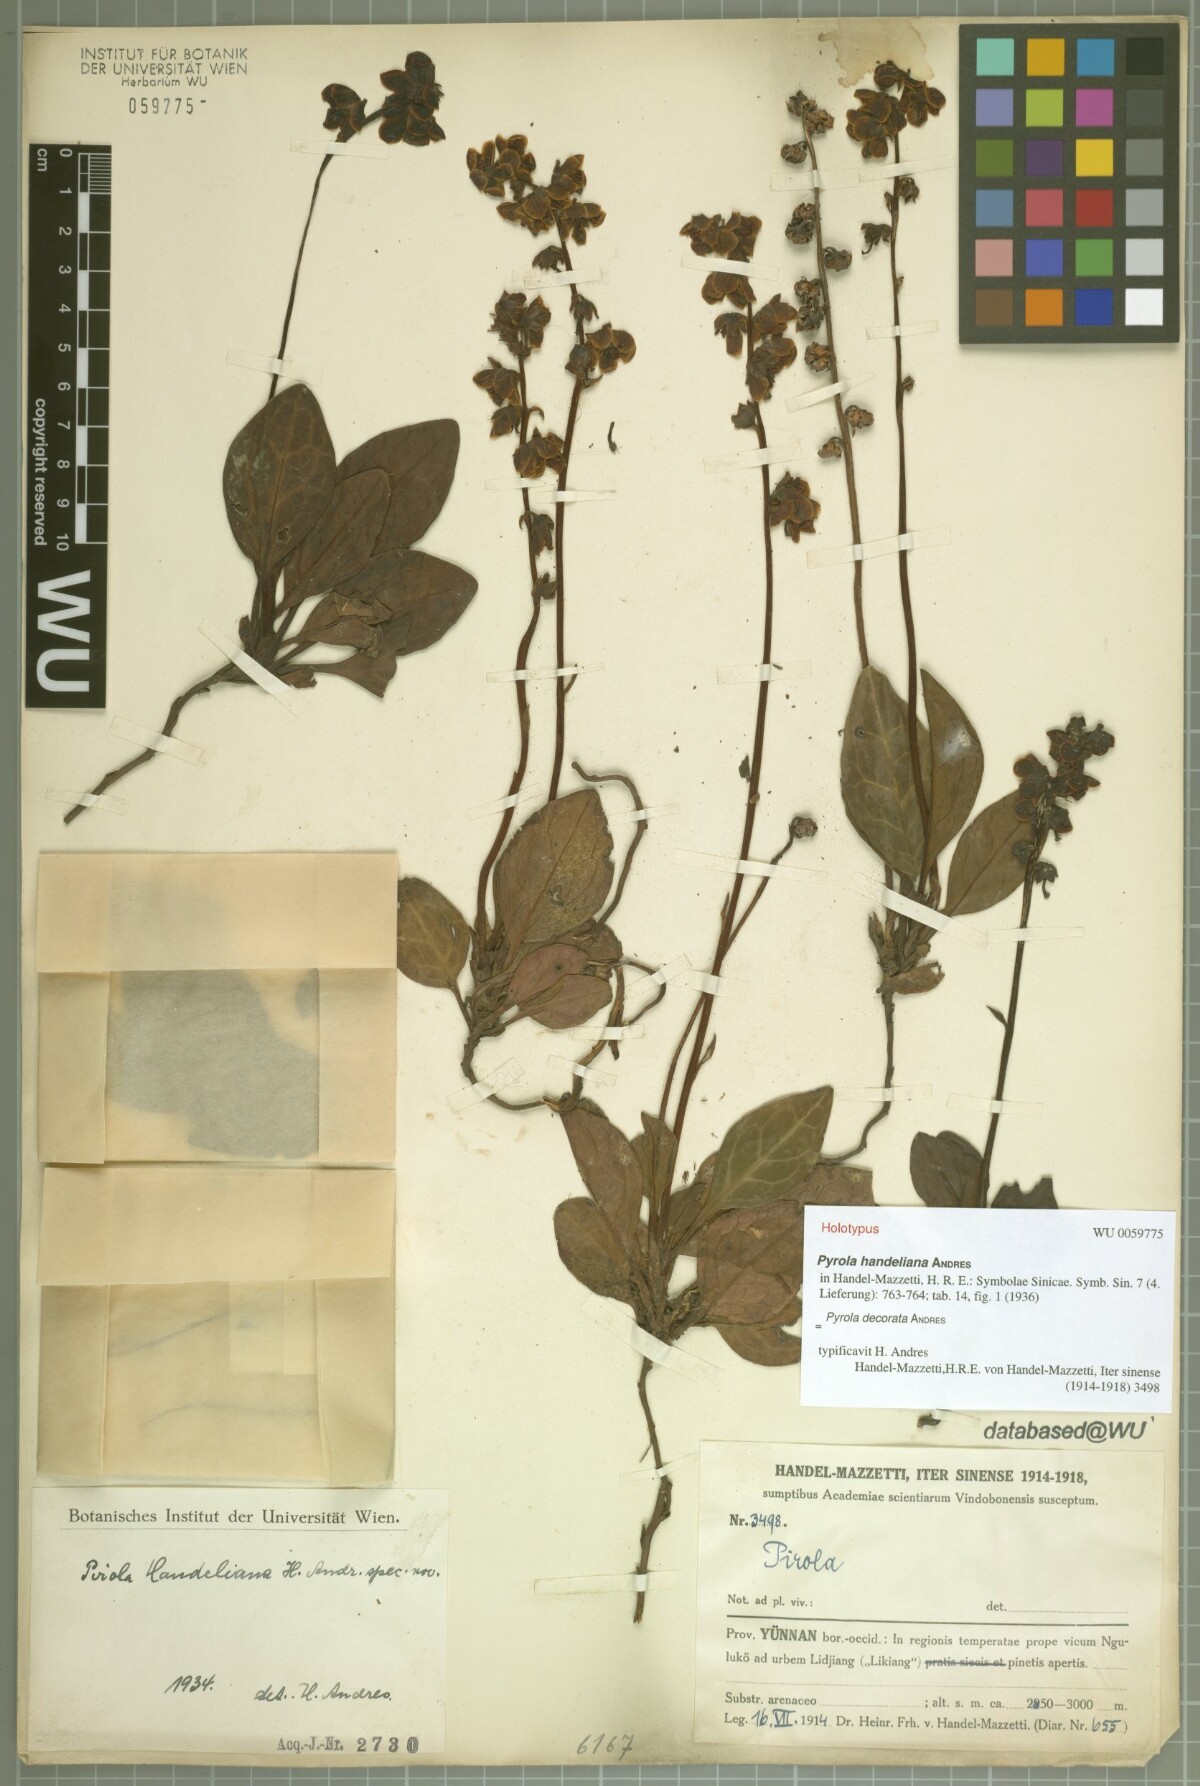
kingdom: Plantae
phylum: Tracheophyta
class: Magnoliopsida
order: Ericales
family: Ericaceae
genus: Pyrola
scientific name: Pyrola decorata
